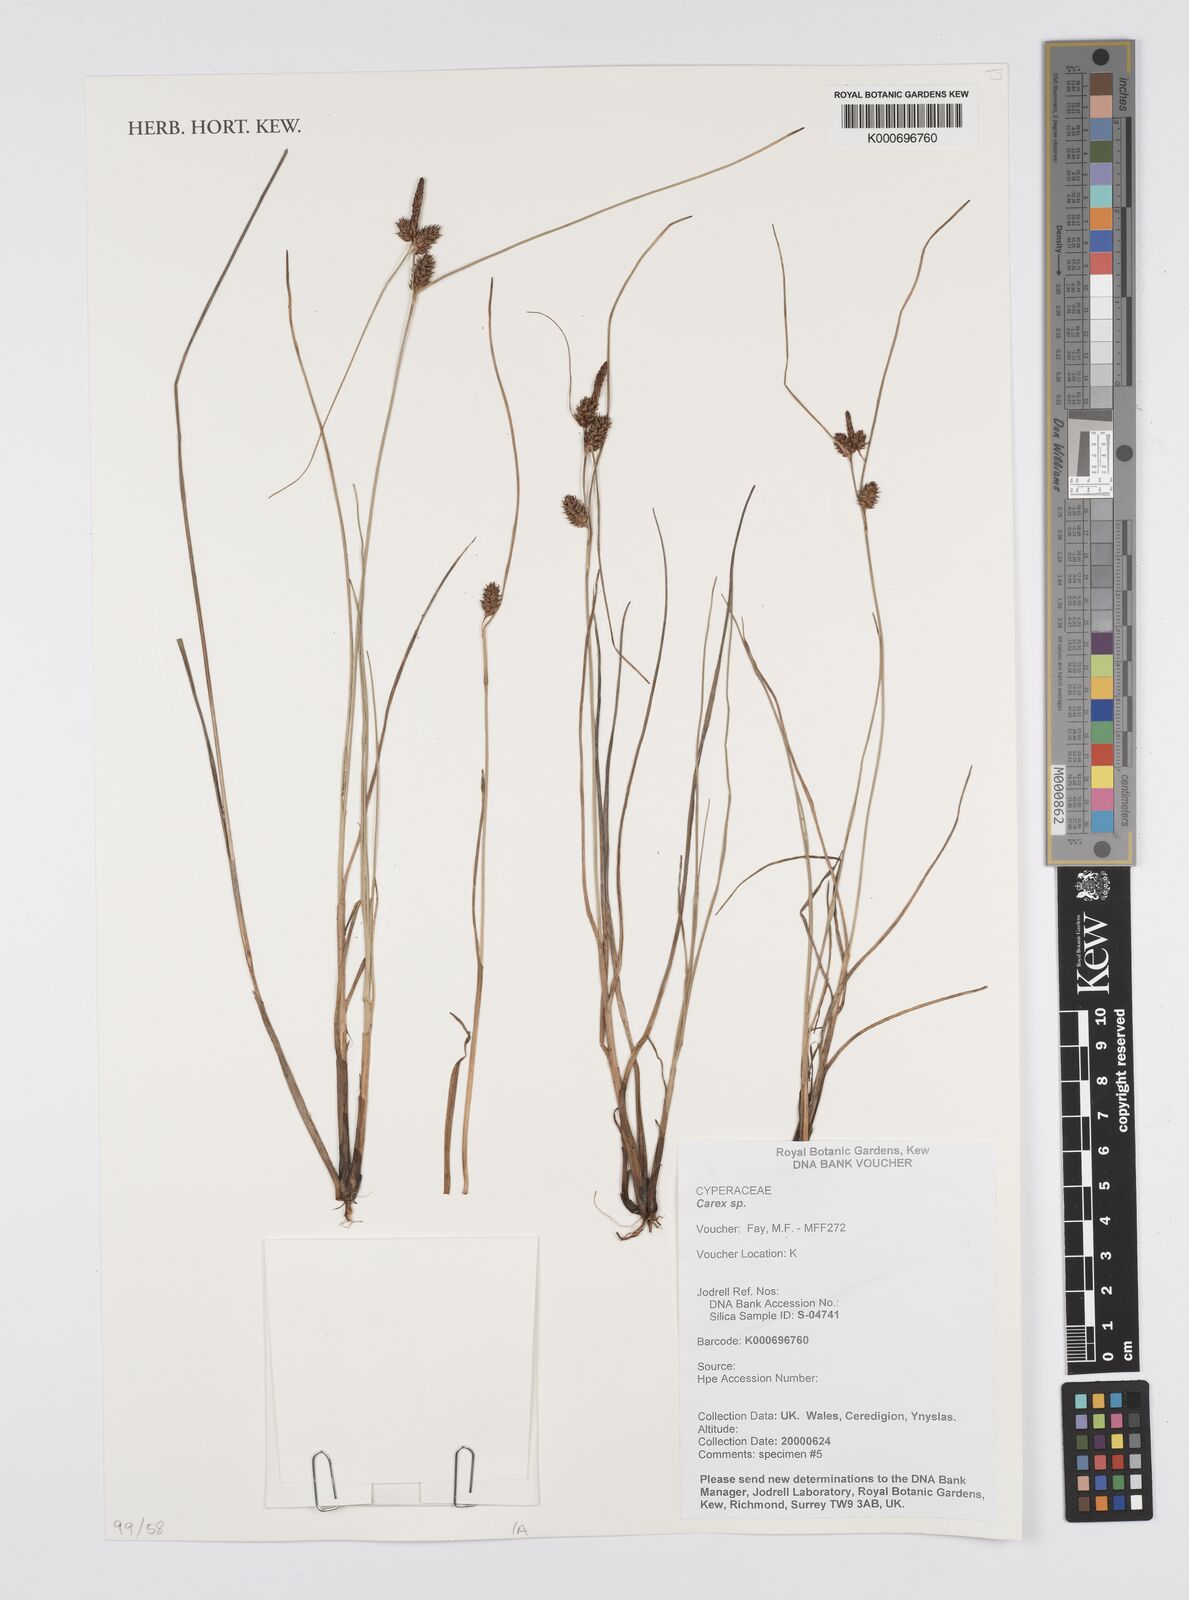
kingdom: Plantae
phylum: Tracheophyta
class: Liliopsida
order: Poales
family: Cyperaceae
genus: Carex
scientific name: Carex
